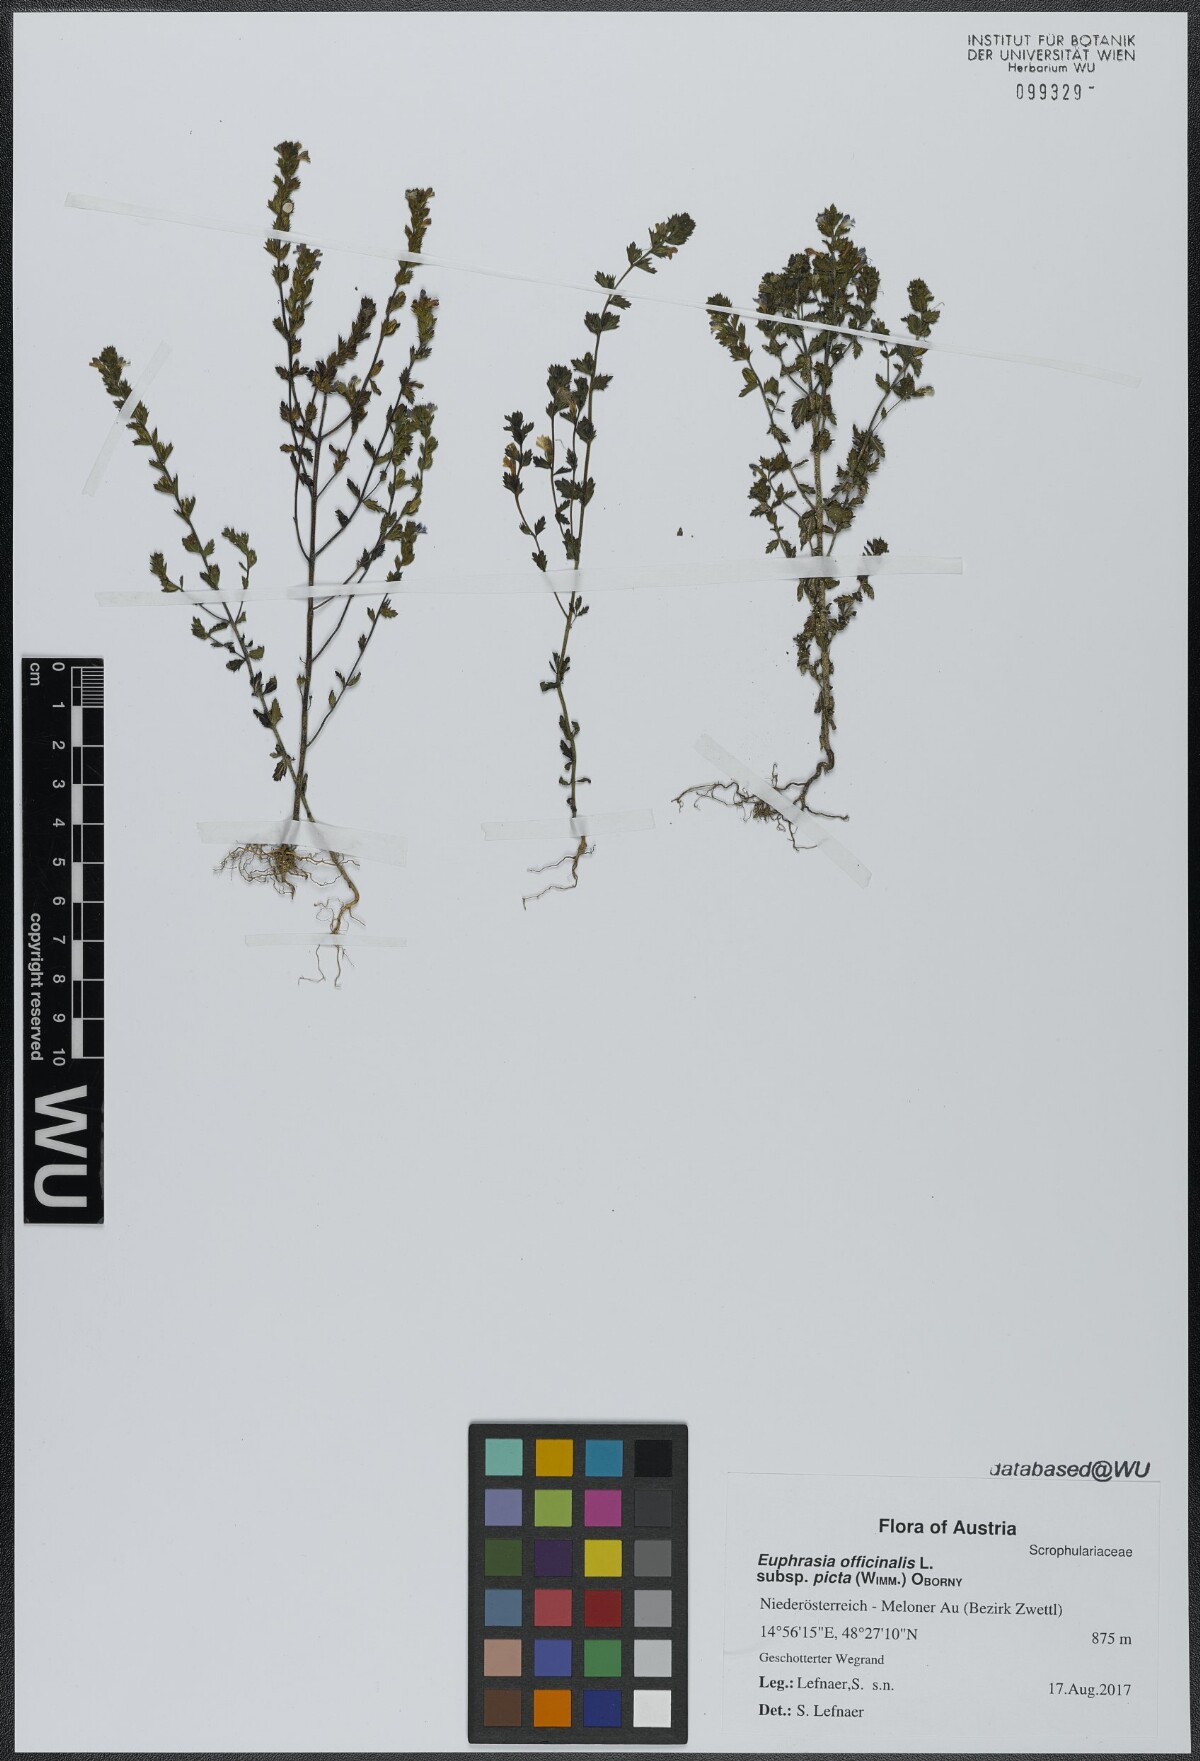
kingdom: Plantae
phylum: Tracheophyta
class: Magnoliopsida
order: Lamiales
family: Orobanchaceae
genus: Euphrasia
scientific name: Euphrasia officinalis
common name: Eyebright
